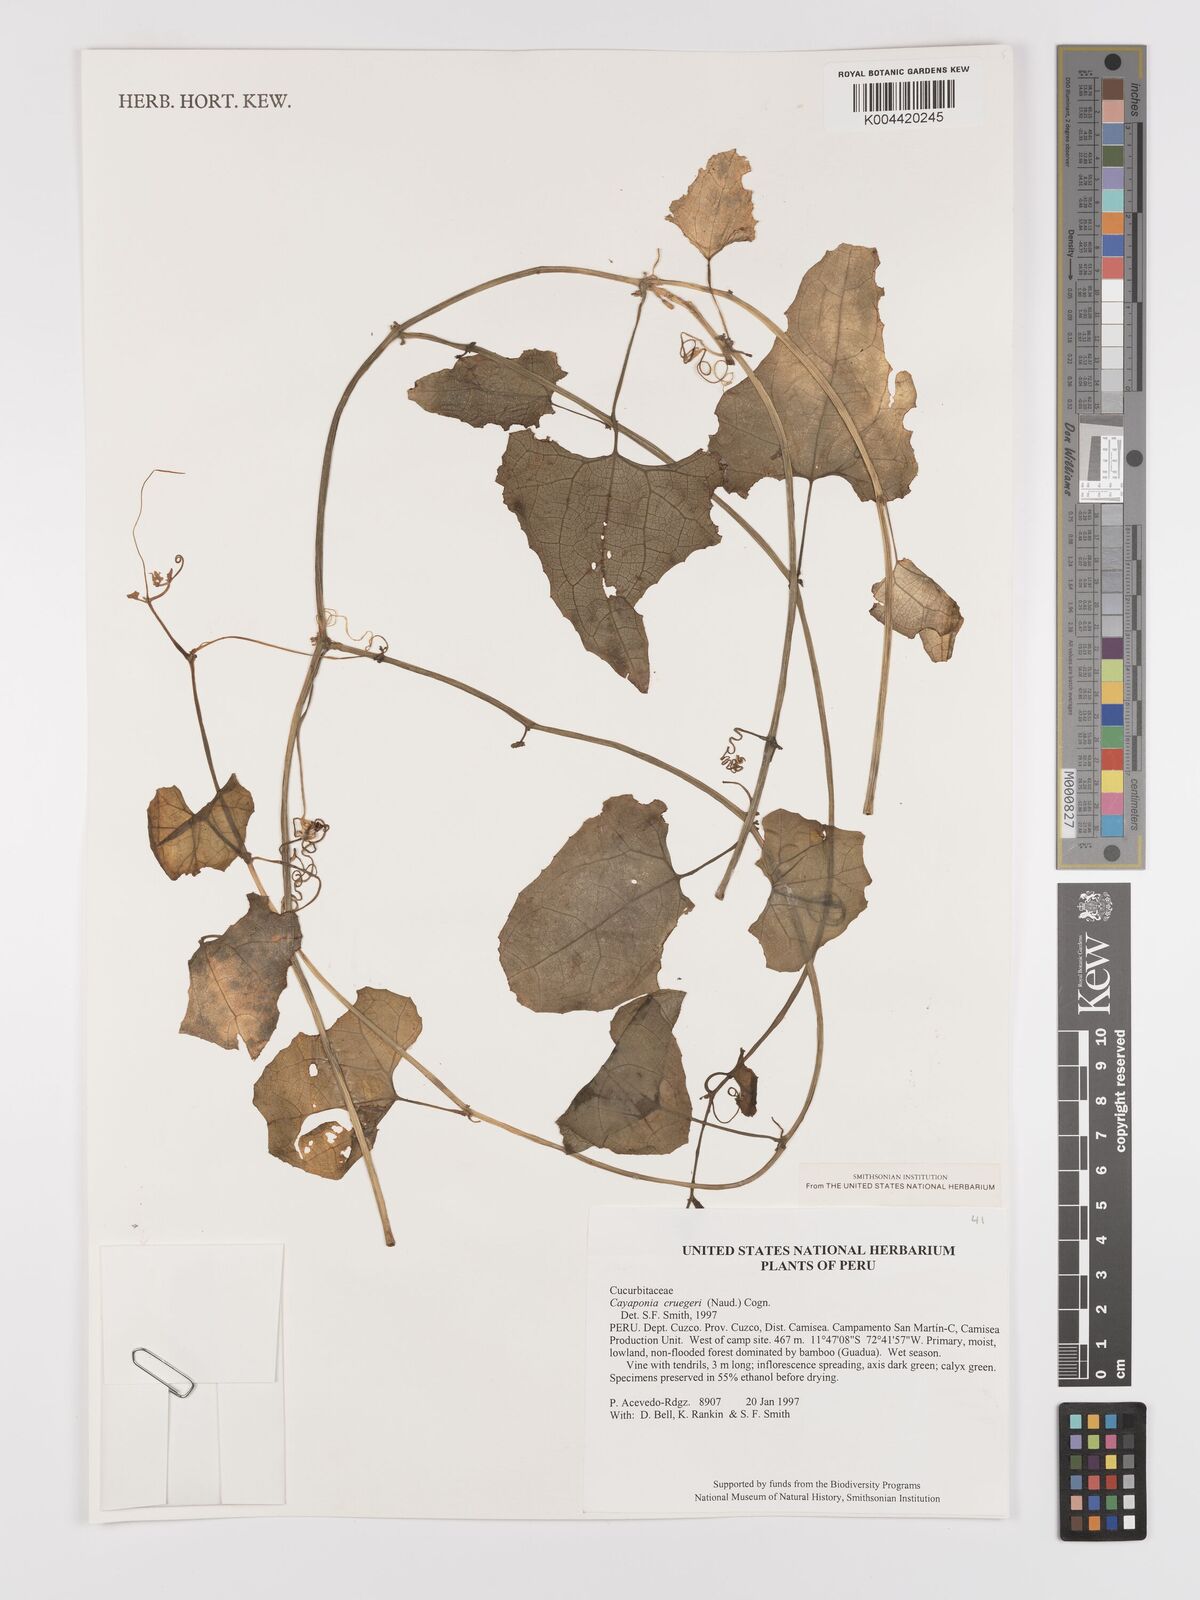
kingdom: Plantae
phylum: Tracheophyta
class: Magnoliopsida
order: Cucurbitales
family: Cucurbitaceae
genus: Cayaponia
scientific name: Cayaponia cruegeri
